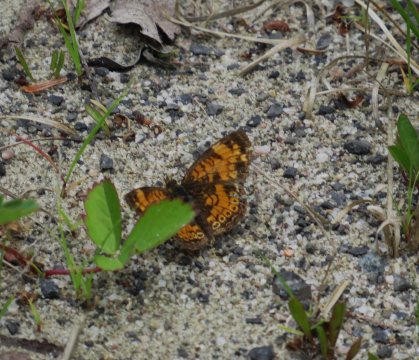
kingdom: Animalia
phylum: Arthropoda
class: Insecta
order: Lepidoptera
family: Nymphalidae
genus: Phyciodes
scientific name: Phyciodes tharos
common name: Pearl Crescent
